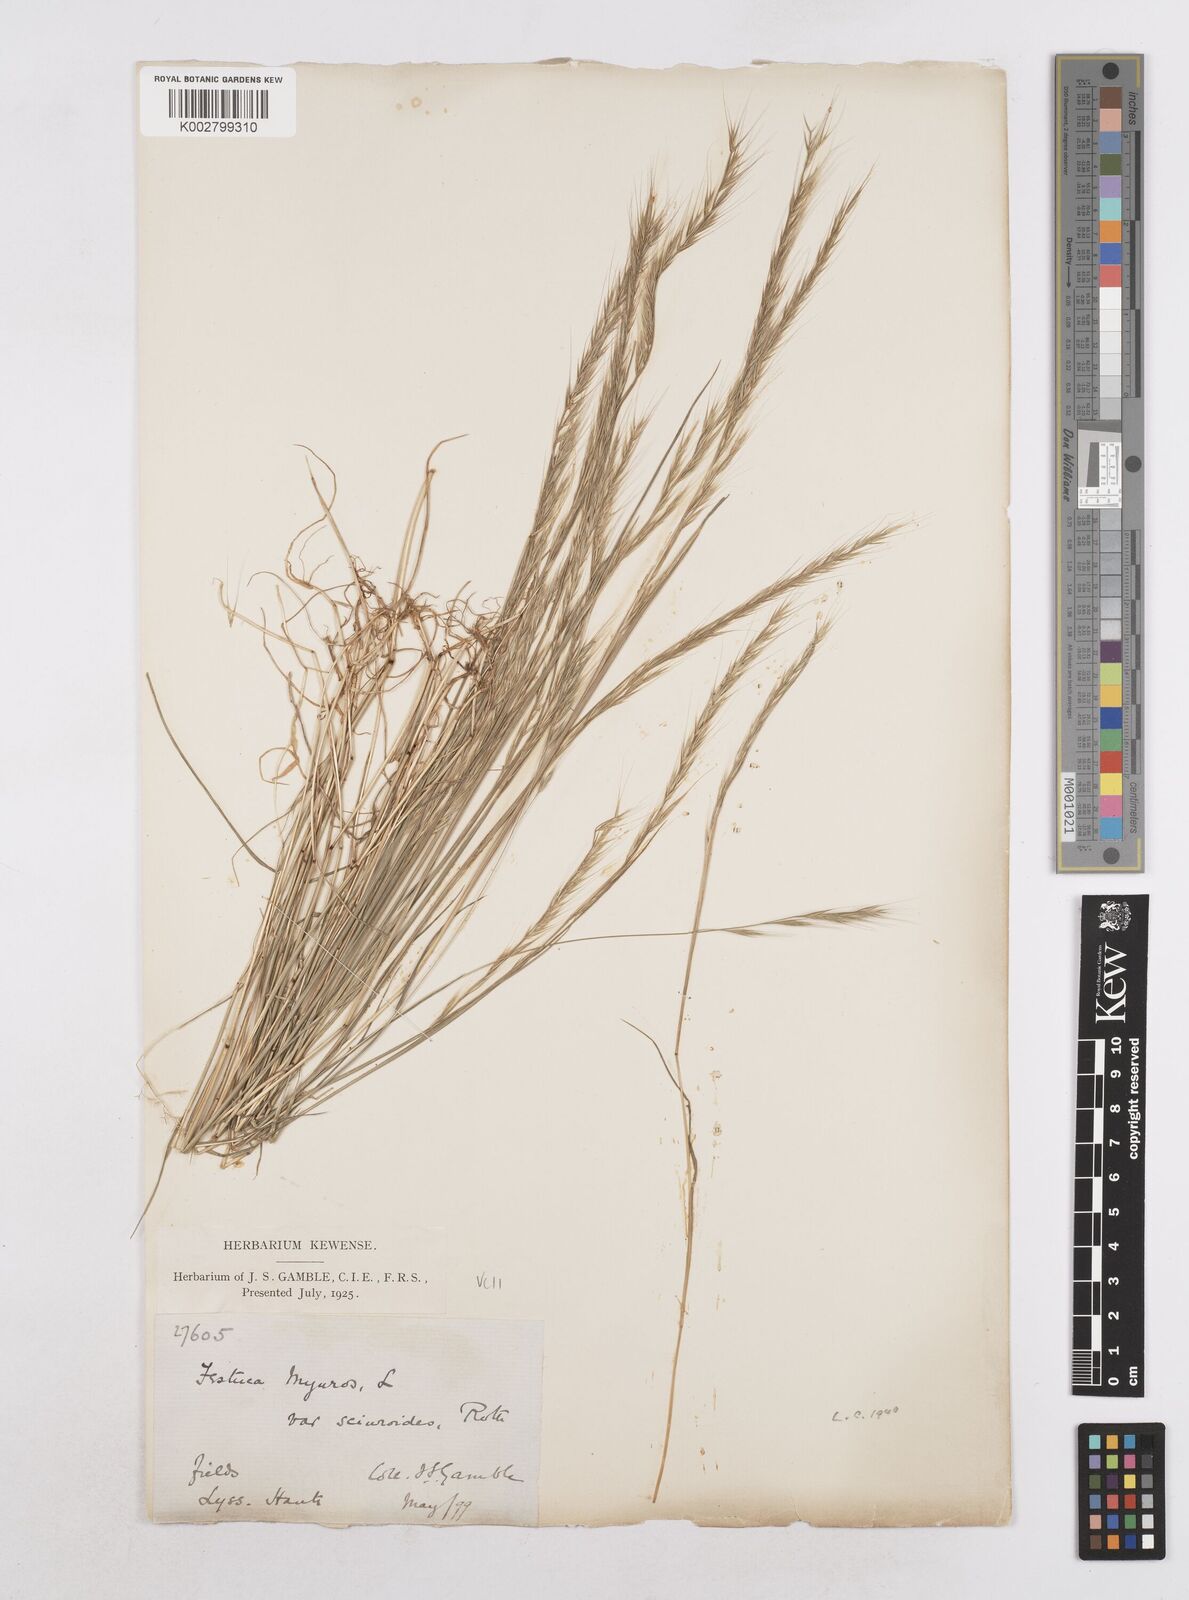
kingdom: Plantae
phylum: Tracheophyta
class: Liliopsida
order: Poales
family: Poaceae
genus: Festuca
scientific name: Festuca myuros
